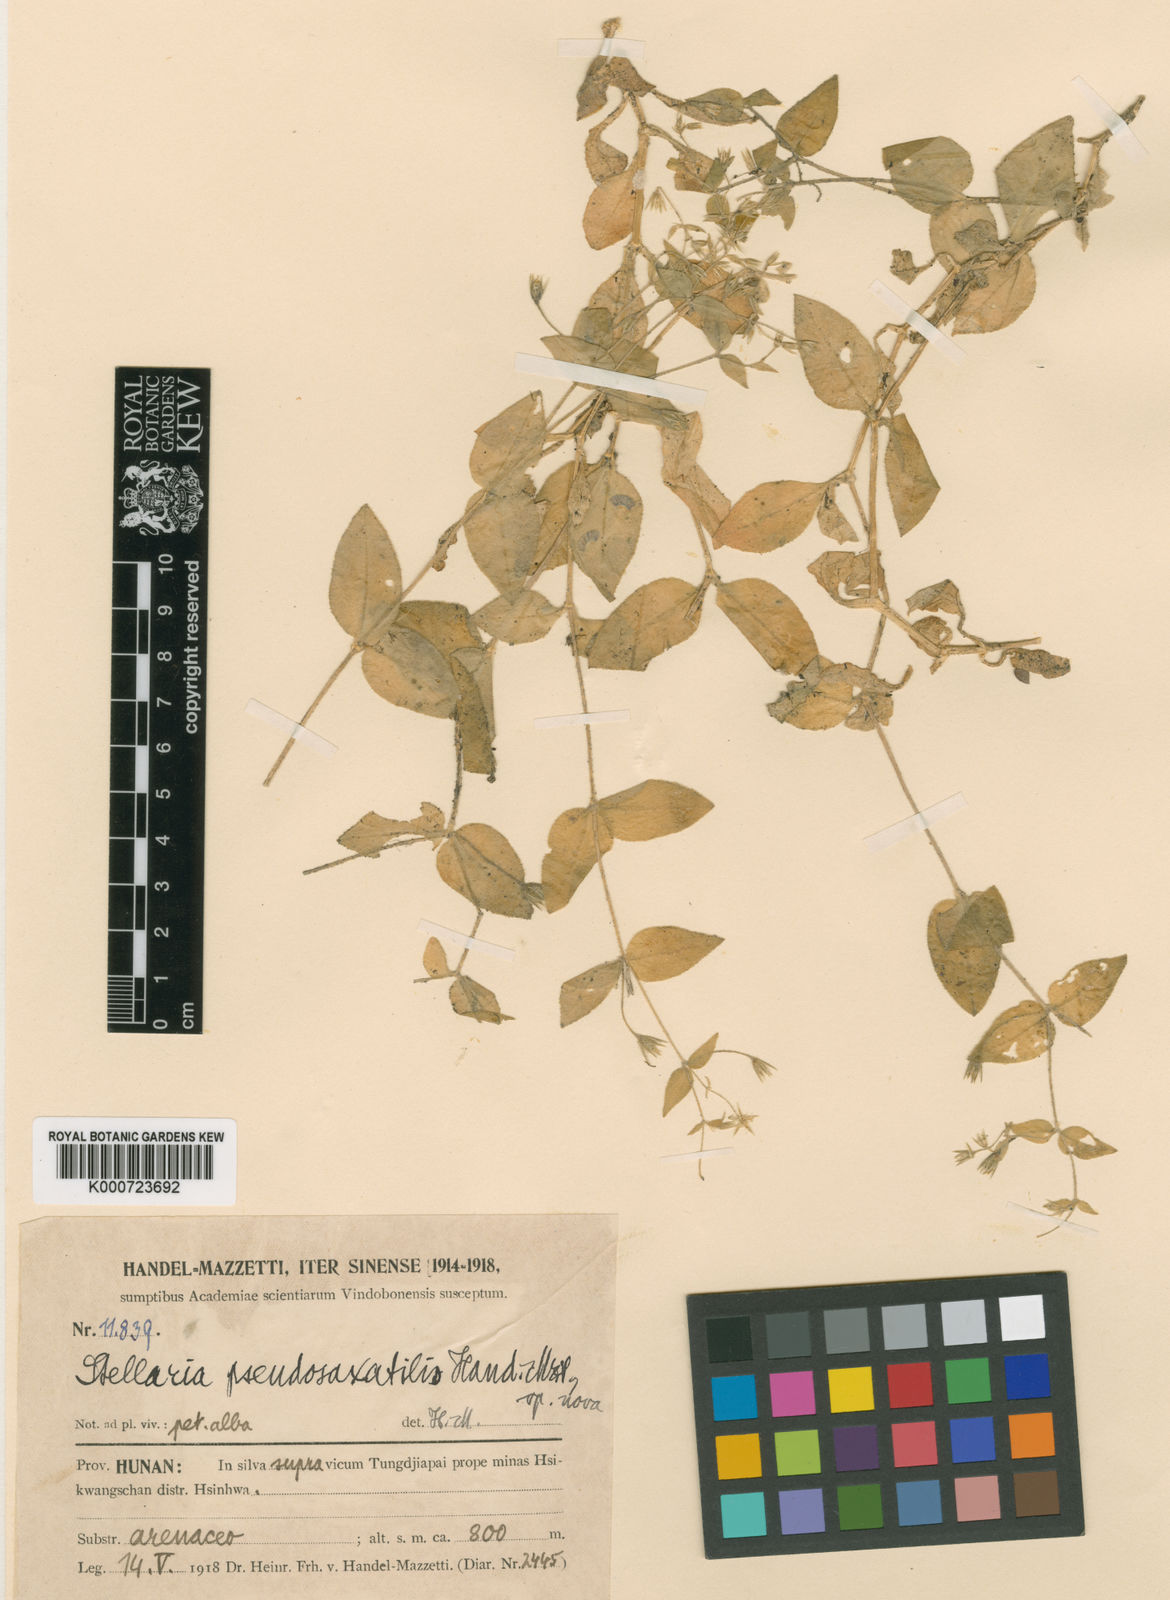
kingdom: Plantae
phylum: Tracheophyta
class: Magnoliopsida
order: Caryophyllales
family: Caryophyllaceae
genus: Stellaria
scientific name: Stellaria vestita
